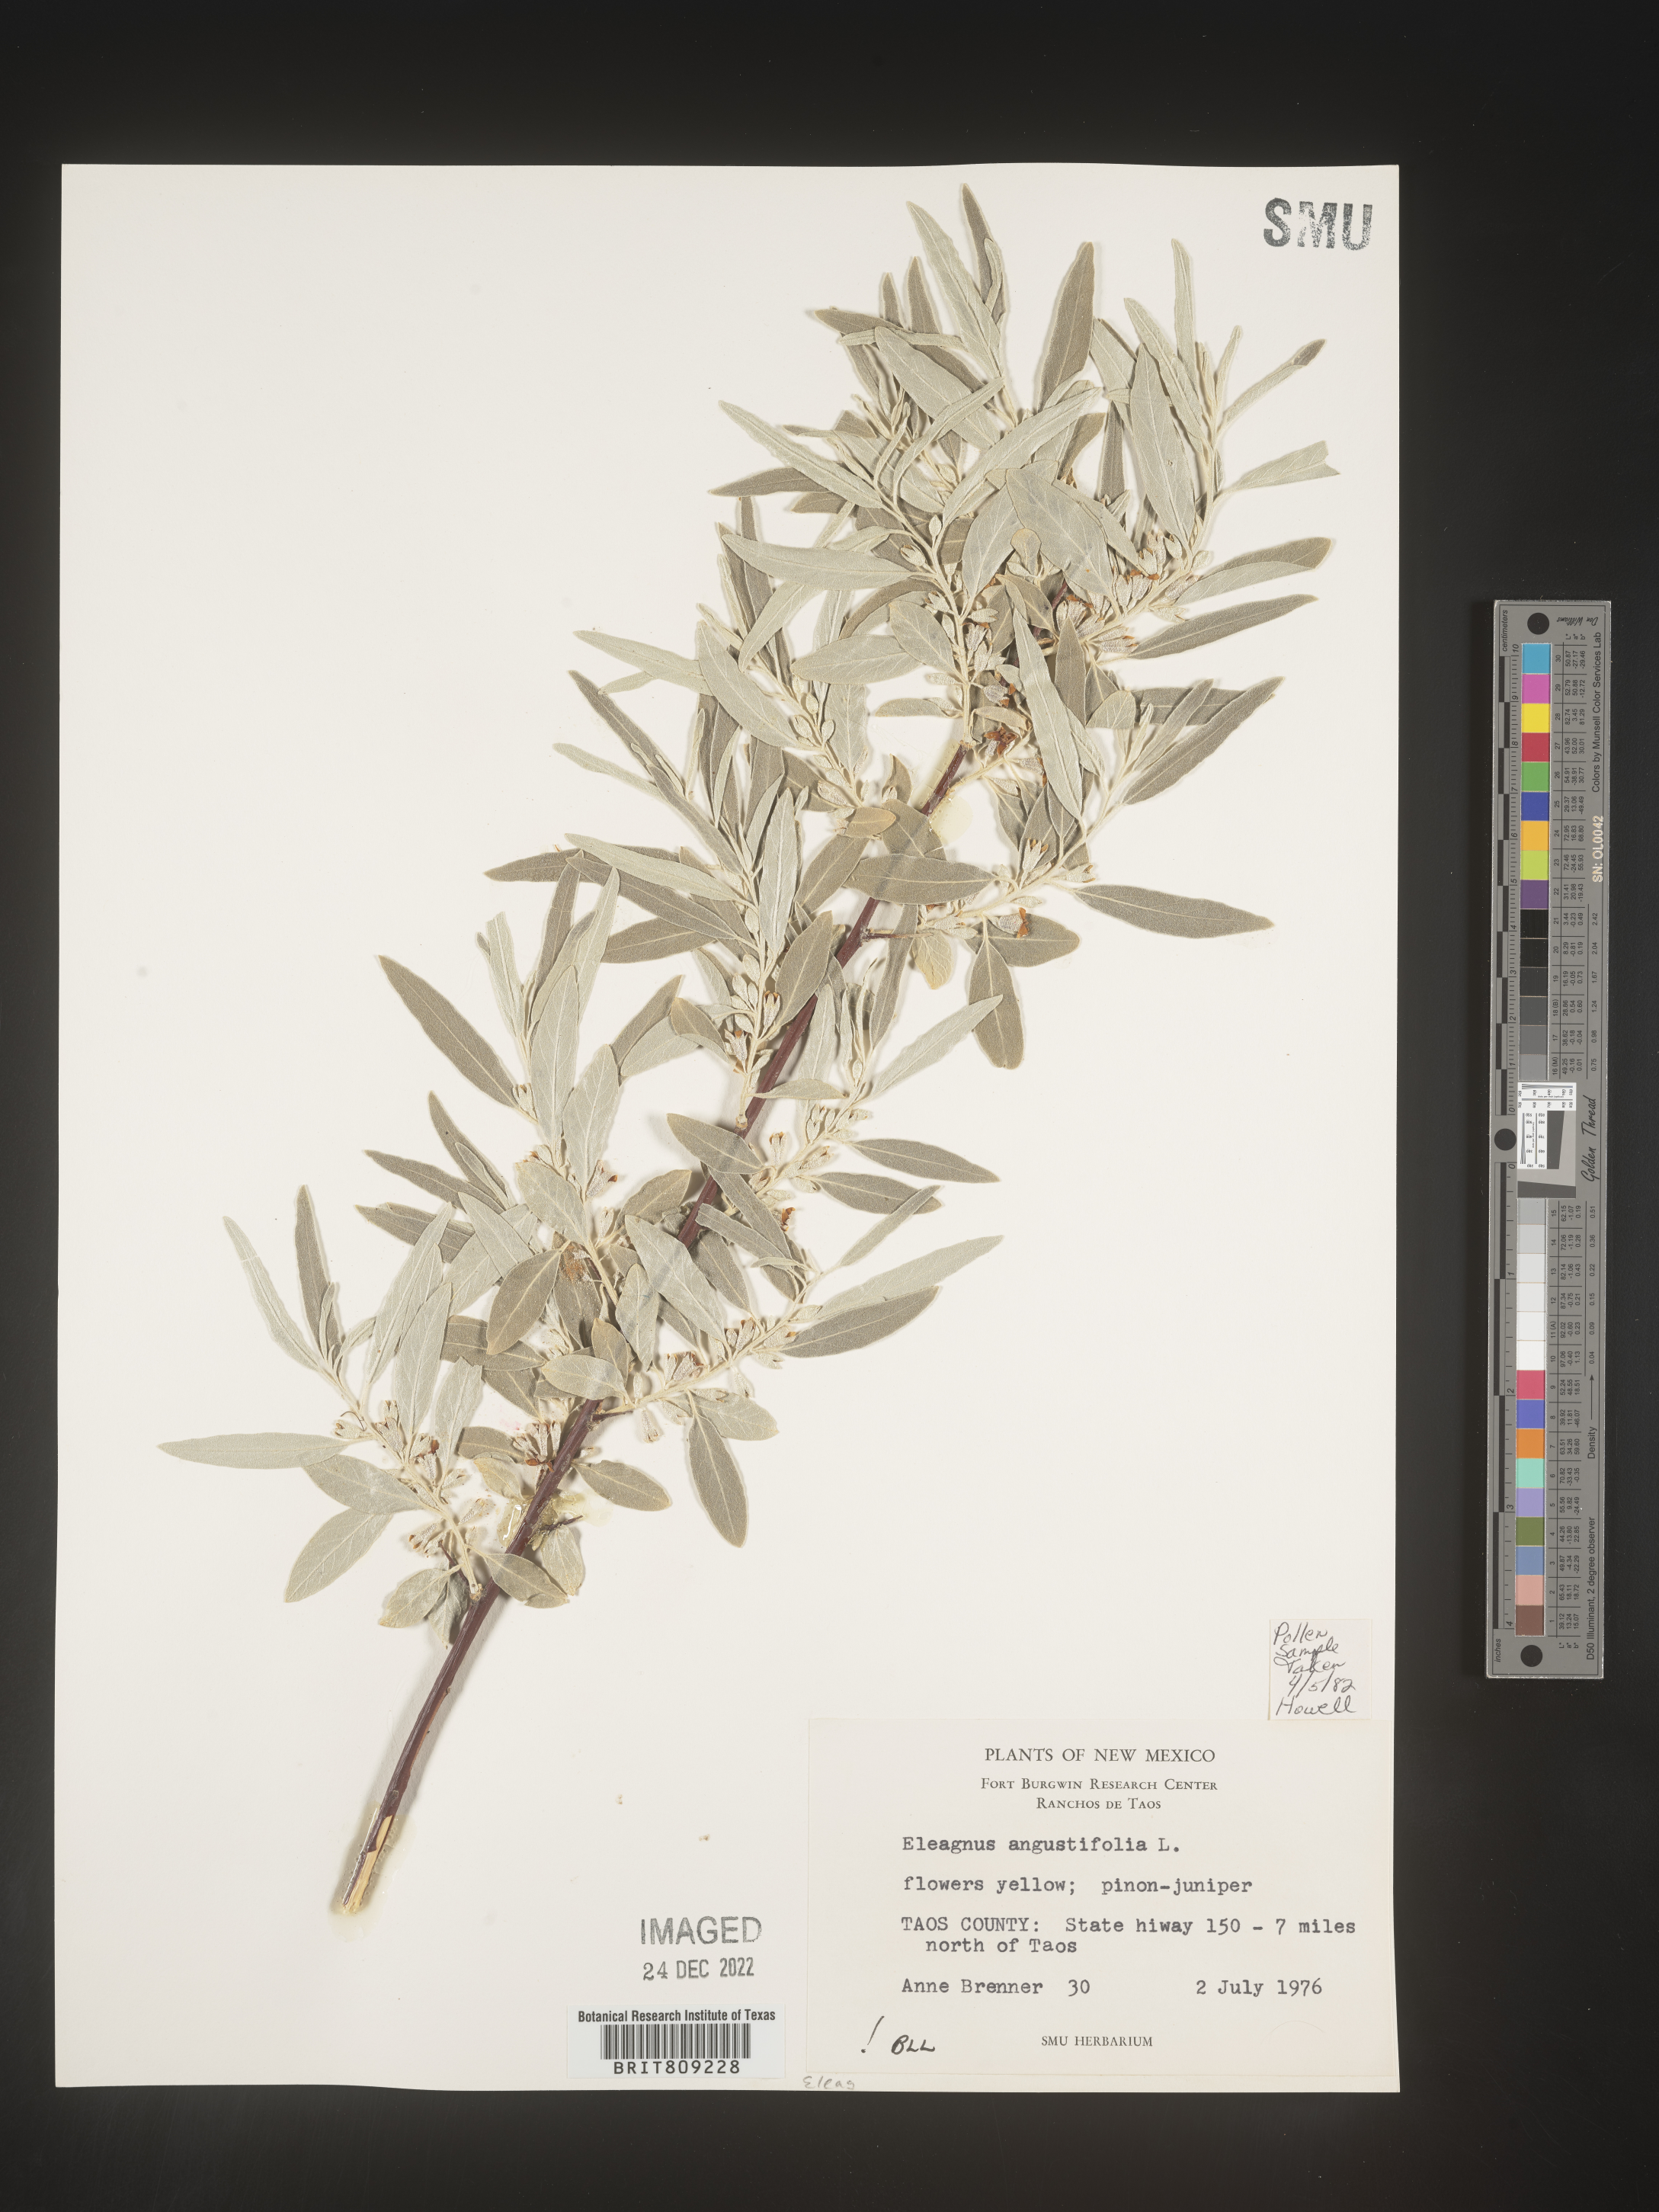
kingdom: Plantae
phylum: Tracheophyta
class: Magnoliopsida
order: Rosales
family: Elaeagnaceae
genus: Elaeagnus
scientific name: Elaeagnus angustifolia
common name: Russian olive
